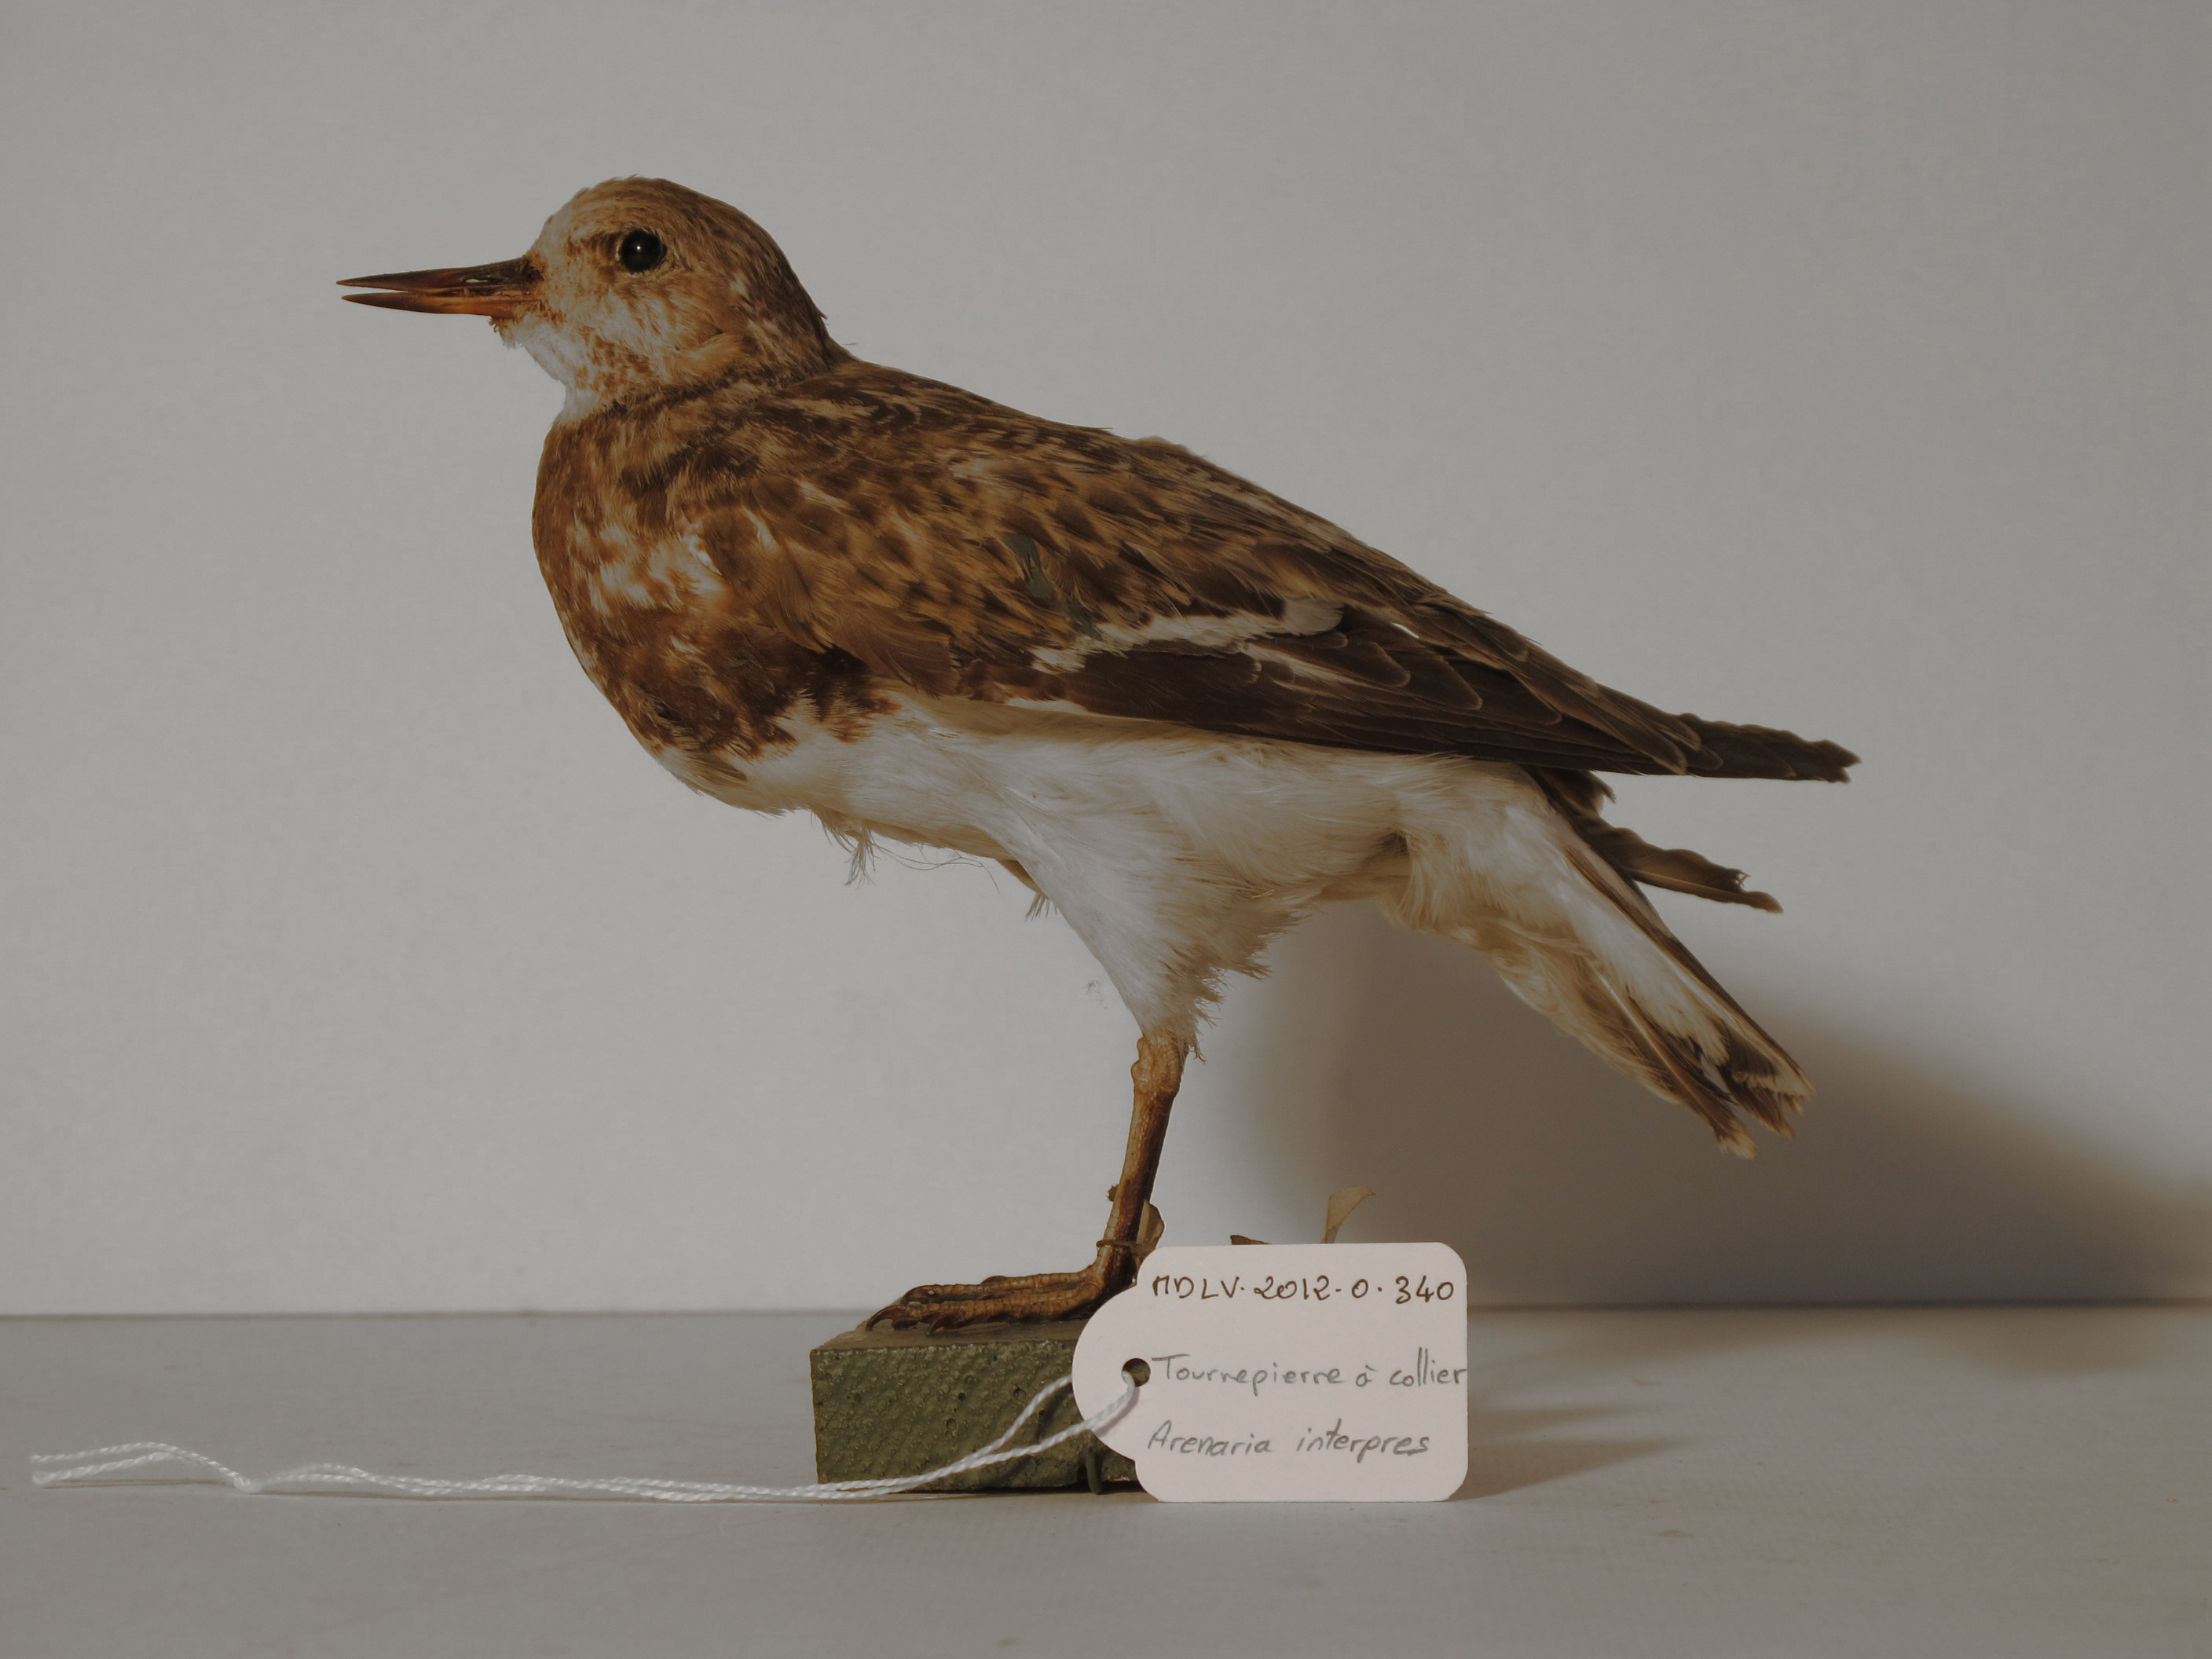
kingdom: Animalia
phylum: Chordata
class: Aves
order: Charadriiformes
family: Scolopacidae
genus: Arenaria
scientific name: Arenaria interpres
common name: Ruddy Turnstone
